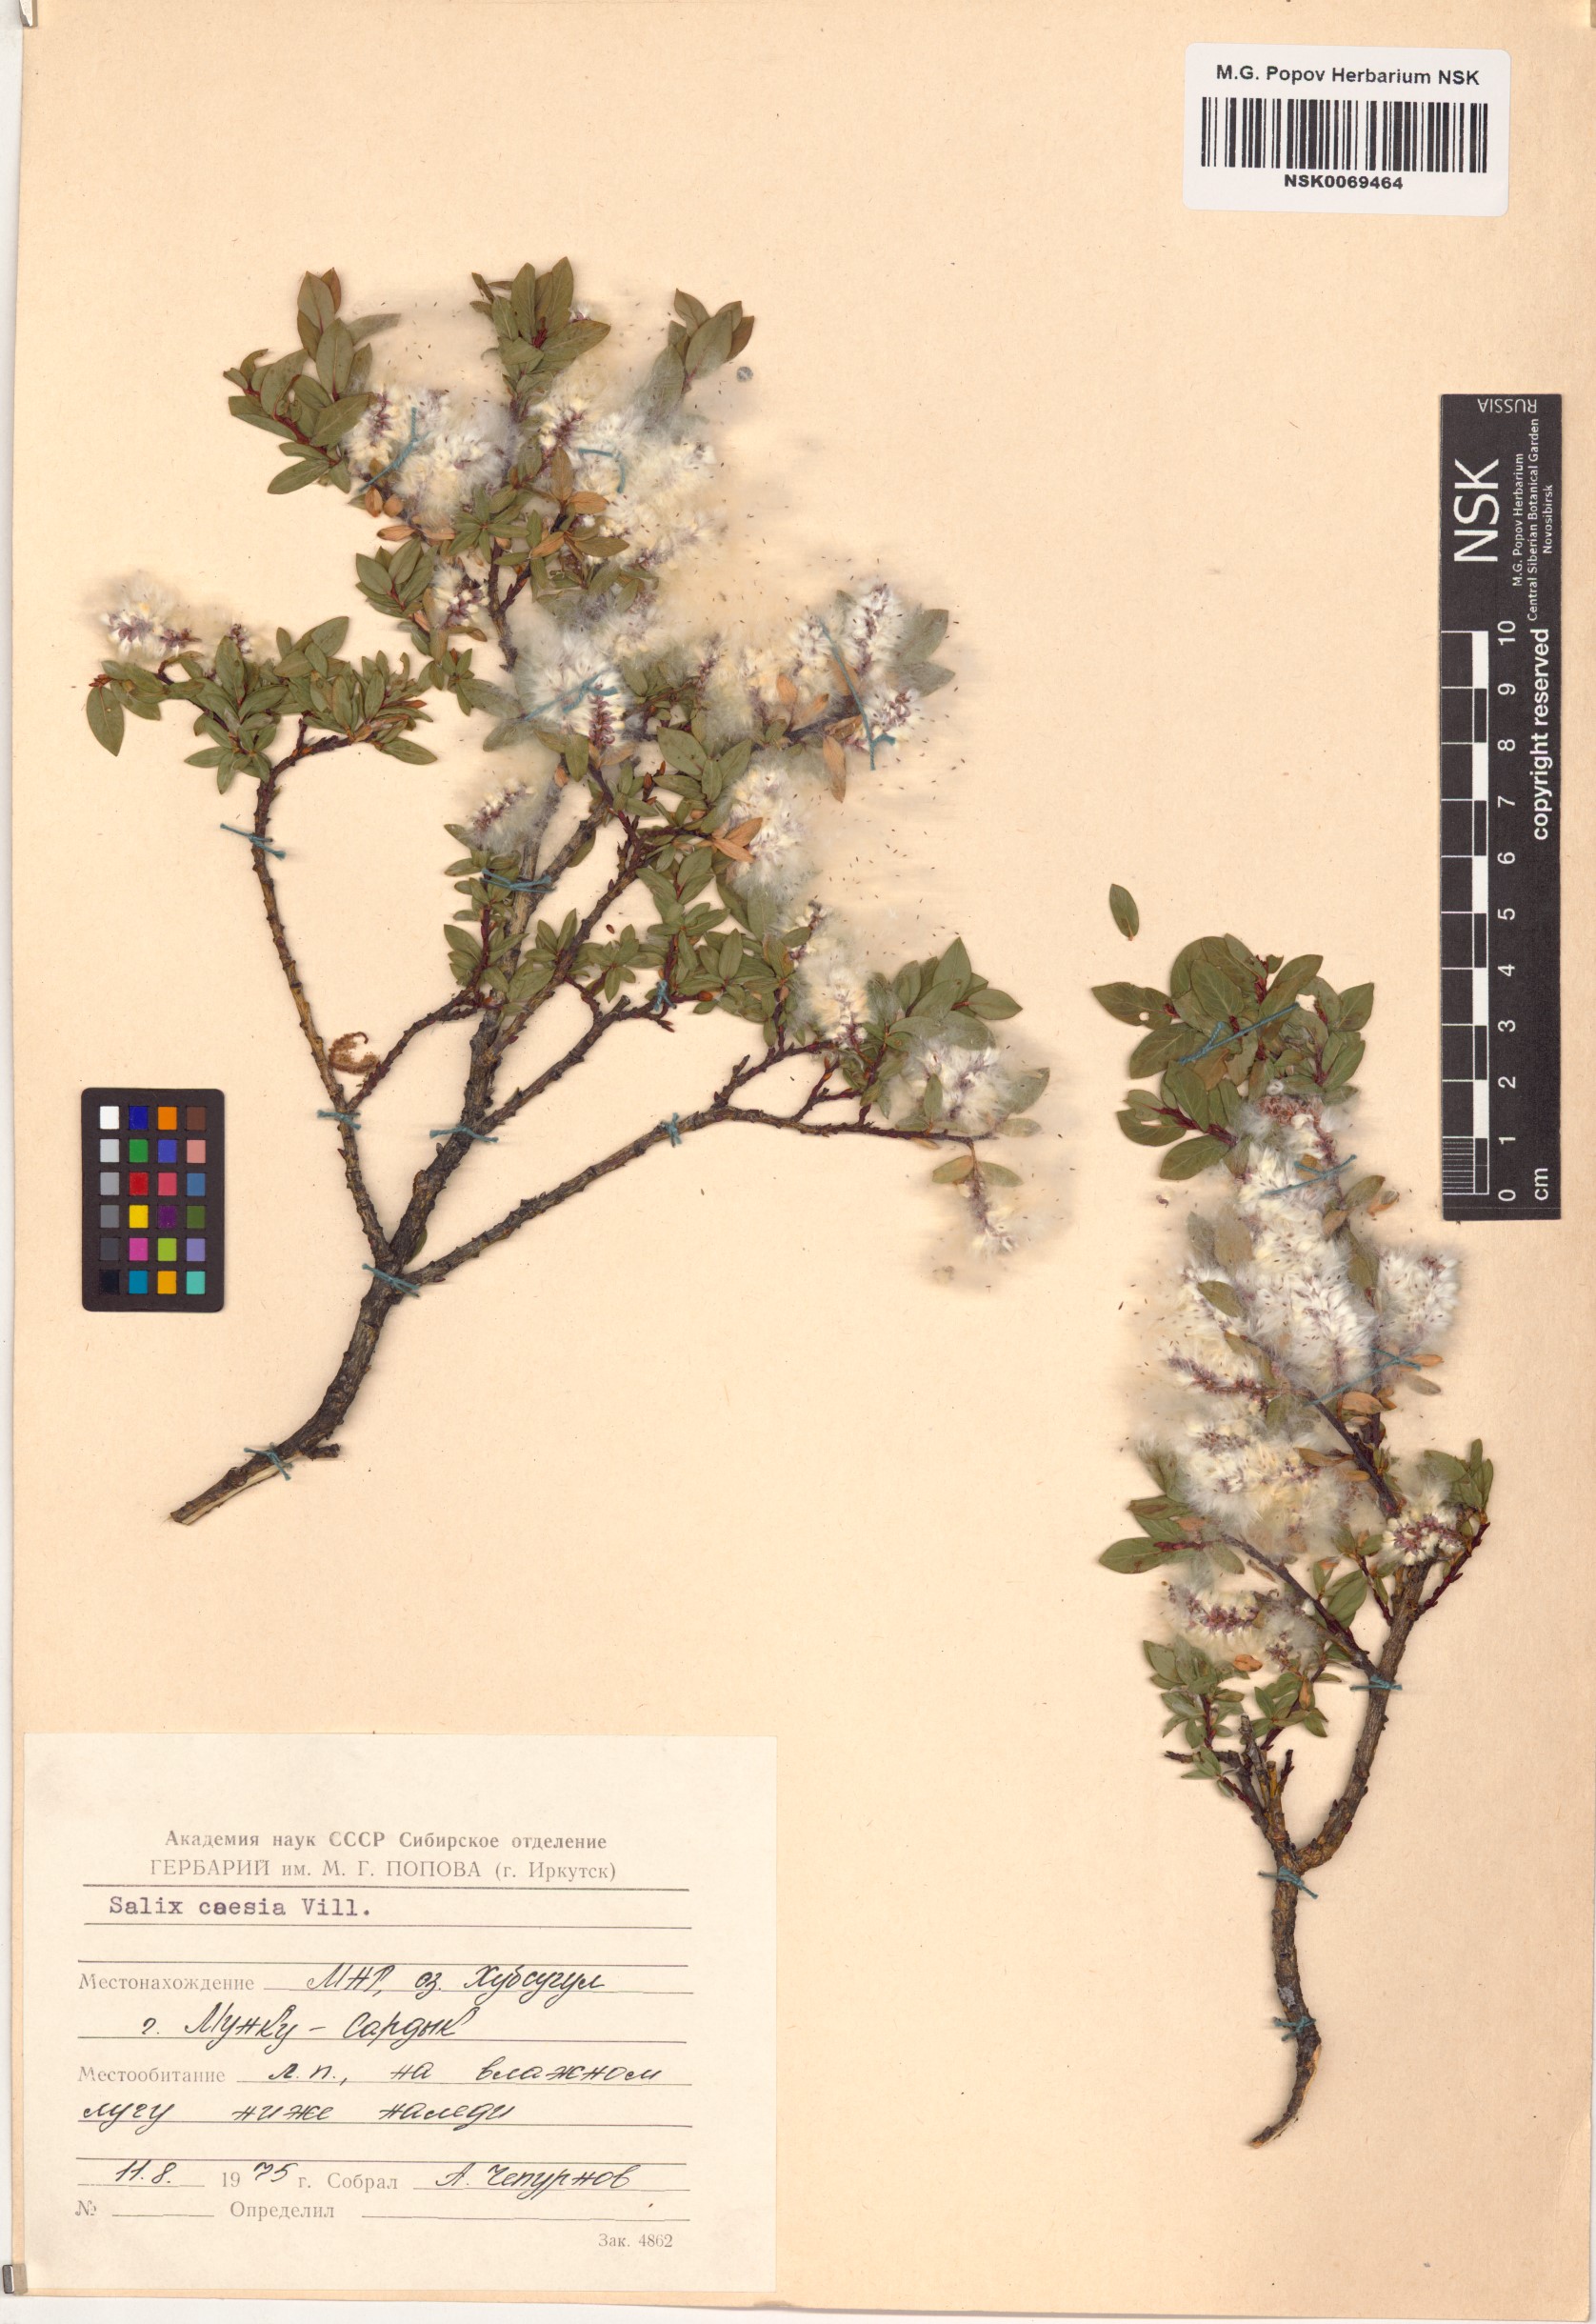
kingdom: Plantae
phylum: Tracheophyta
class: Magnoliopsida
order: Malpighiales
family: Salicaceae
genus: Salix
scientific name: Salix caesia
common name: Blue willow
